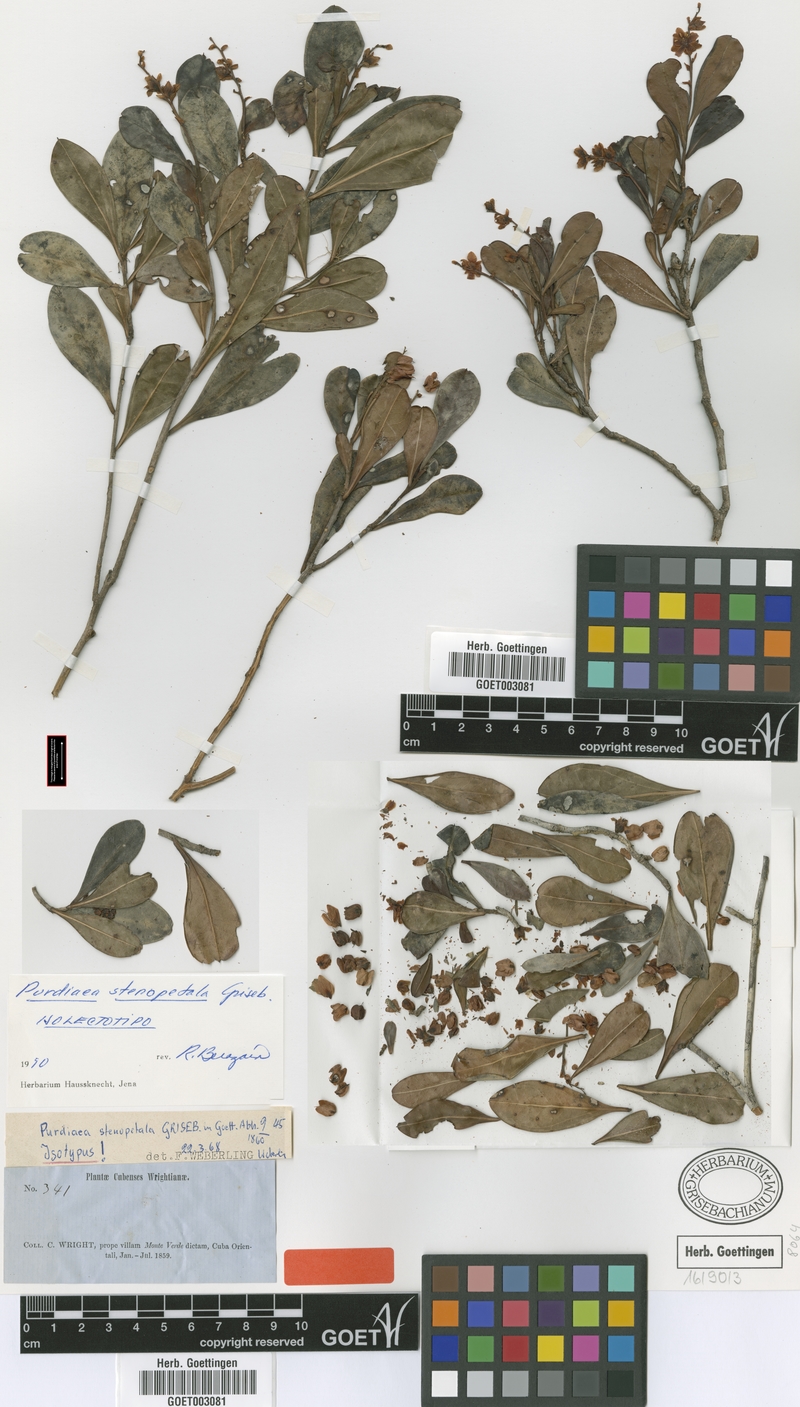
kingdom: Plantae
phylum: Tracheophyta
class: Magnoliopsida
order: Ericales
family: Clethraceae
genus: Purdiaea
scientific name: Purdiaea stenopetala
